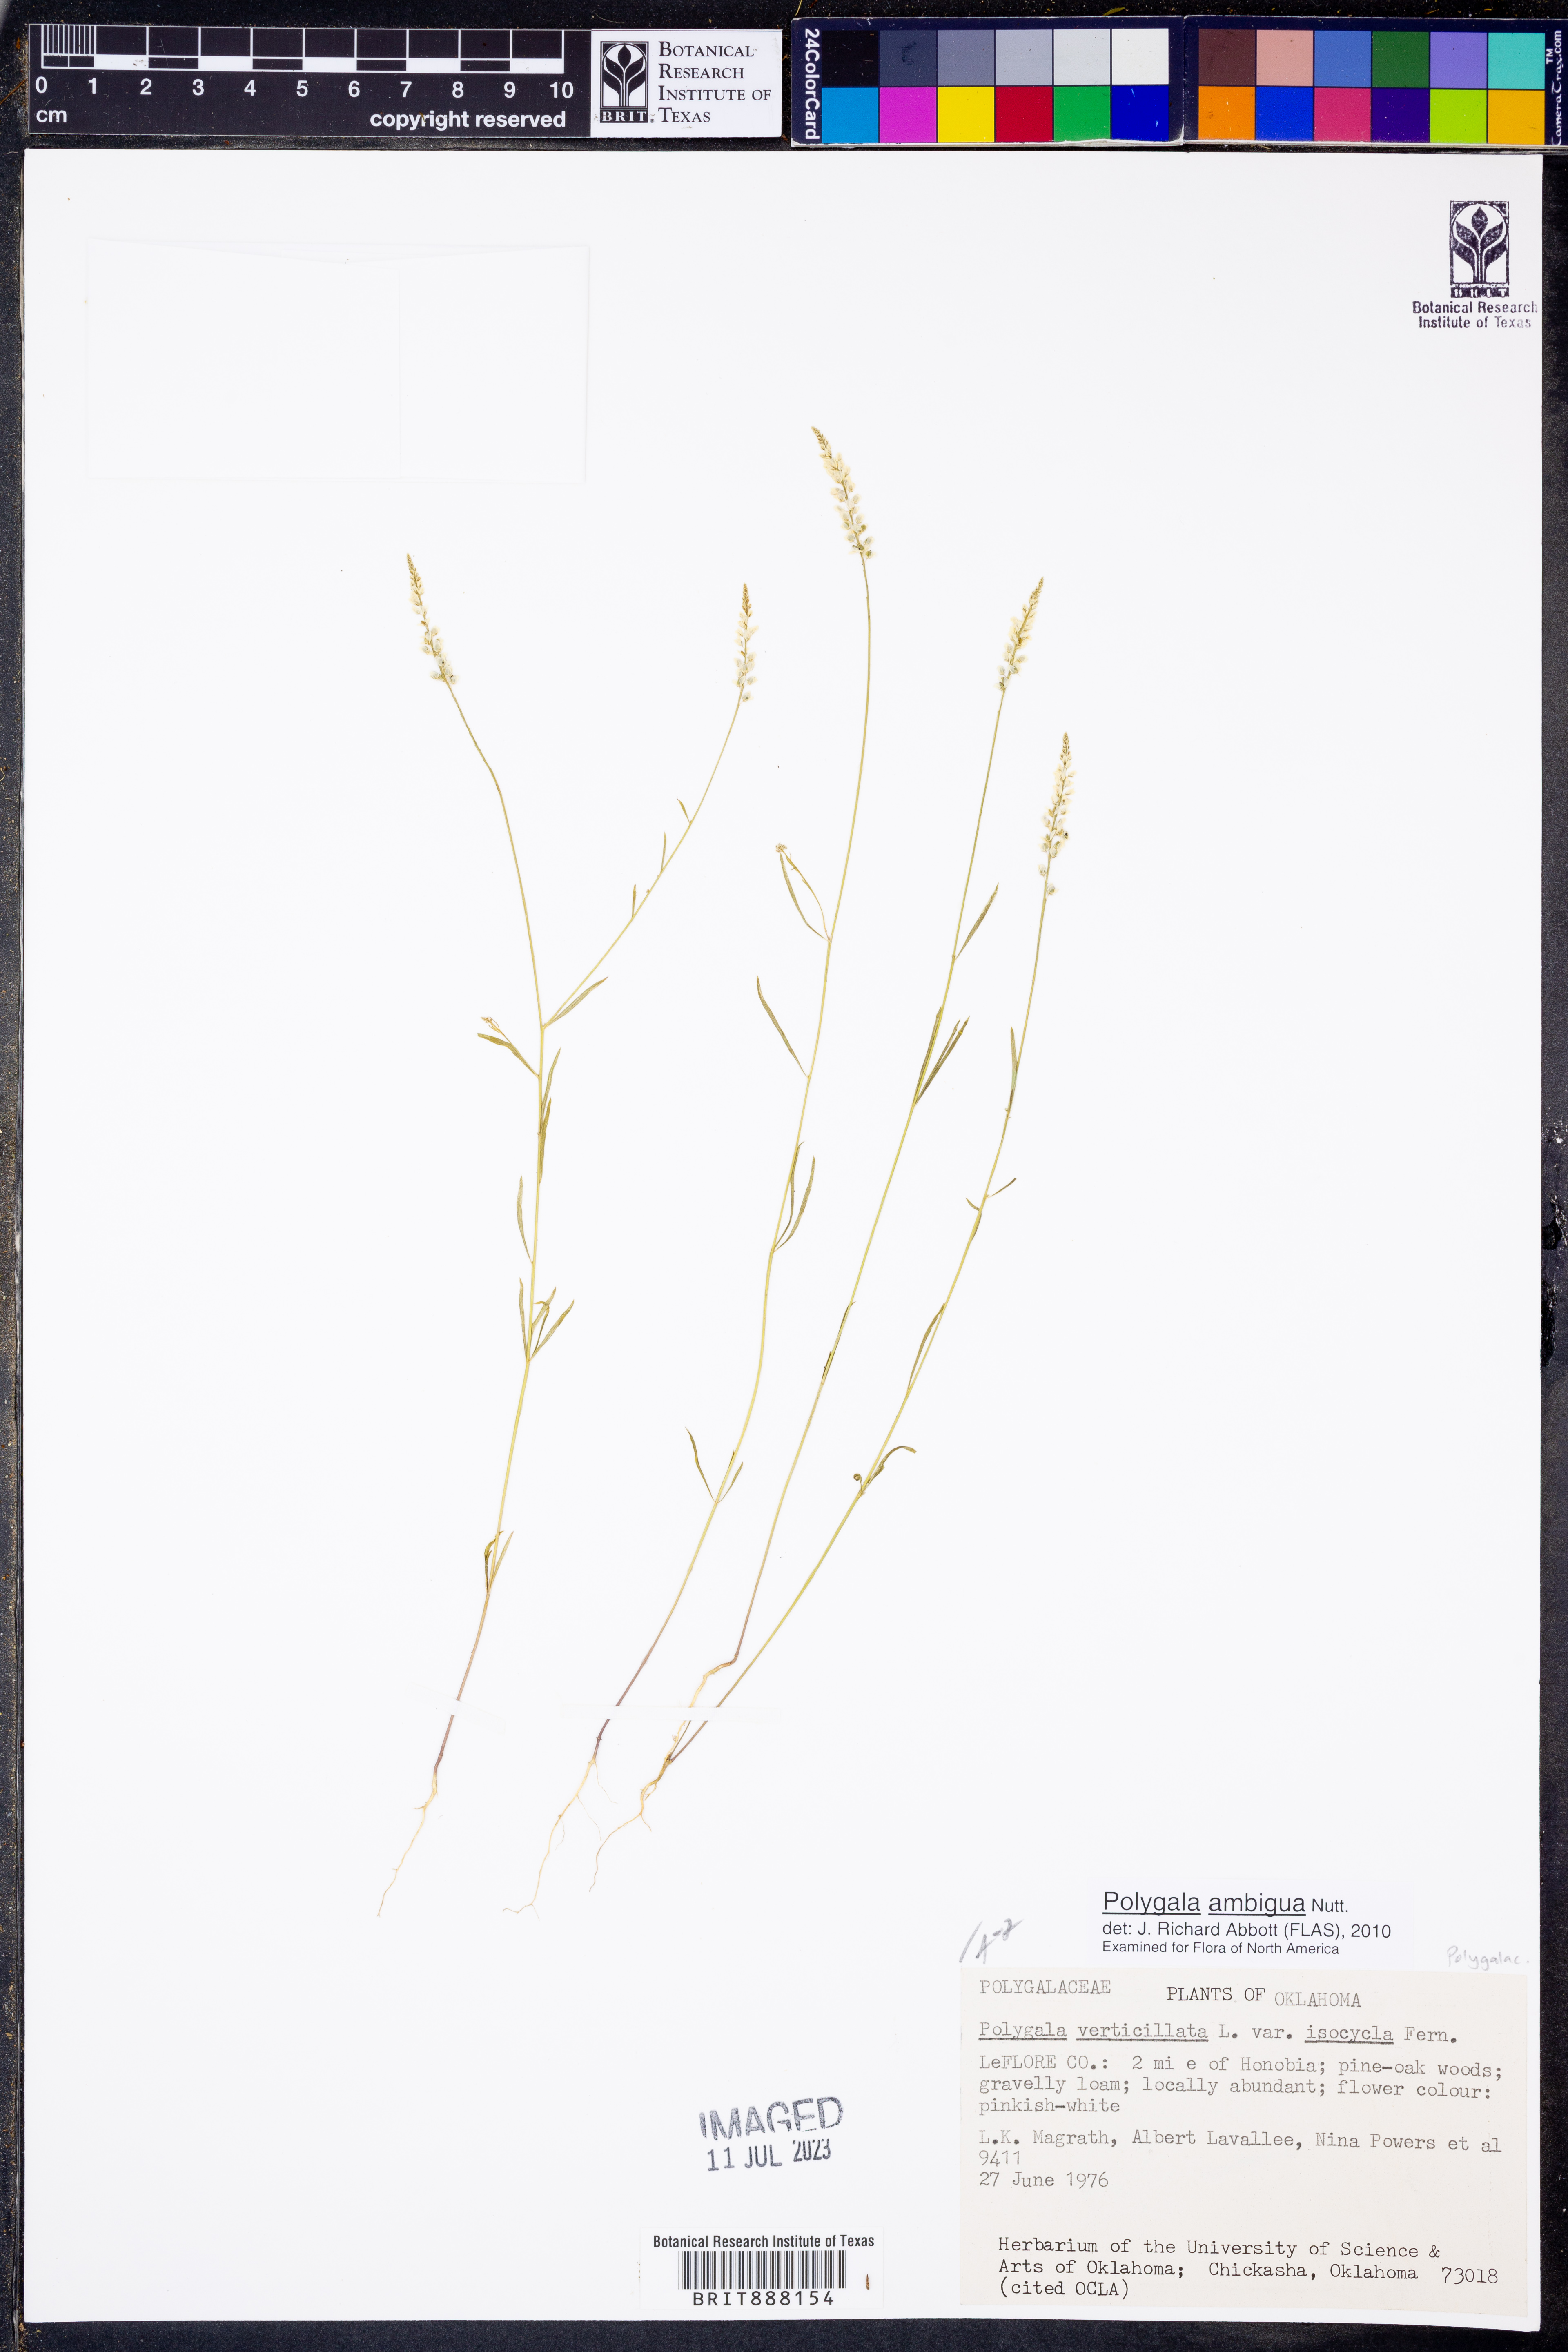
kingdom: Plantae
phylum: Tracheophyta
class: Magnoliopsida
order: Fabales
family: Polygalaceae
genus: Polygala
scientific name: Polygala ambigua
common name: Alternate milkwort
